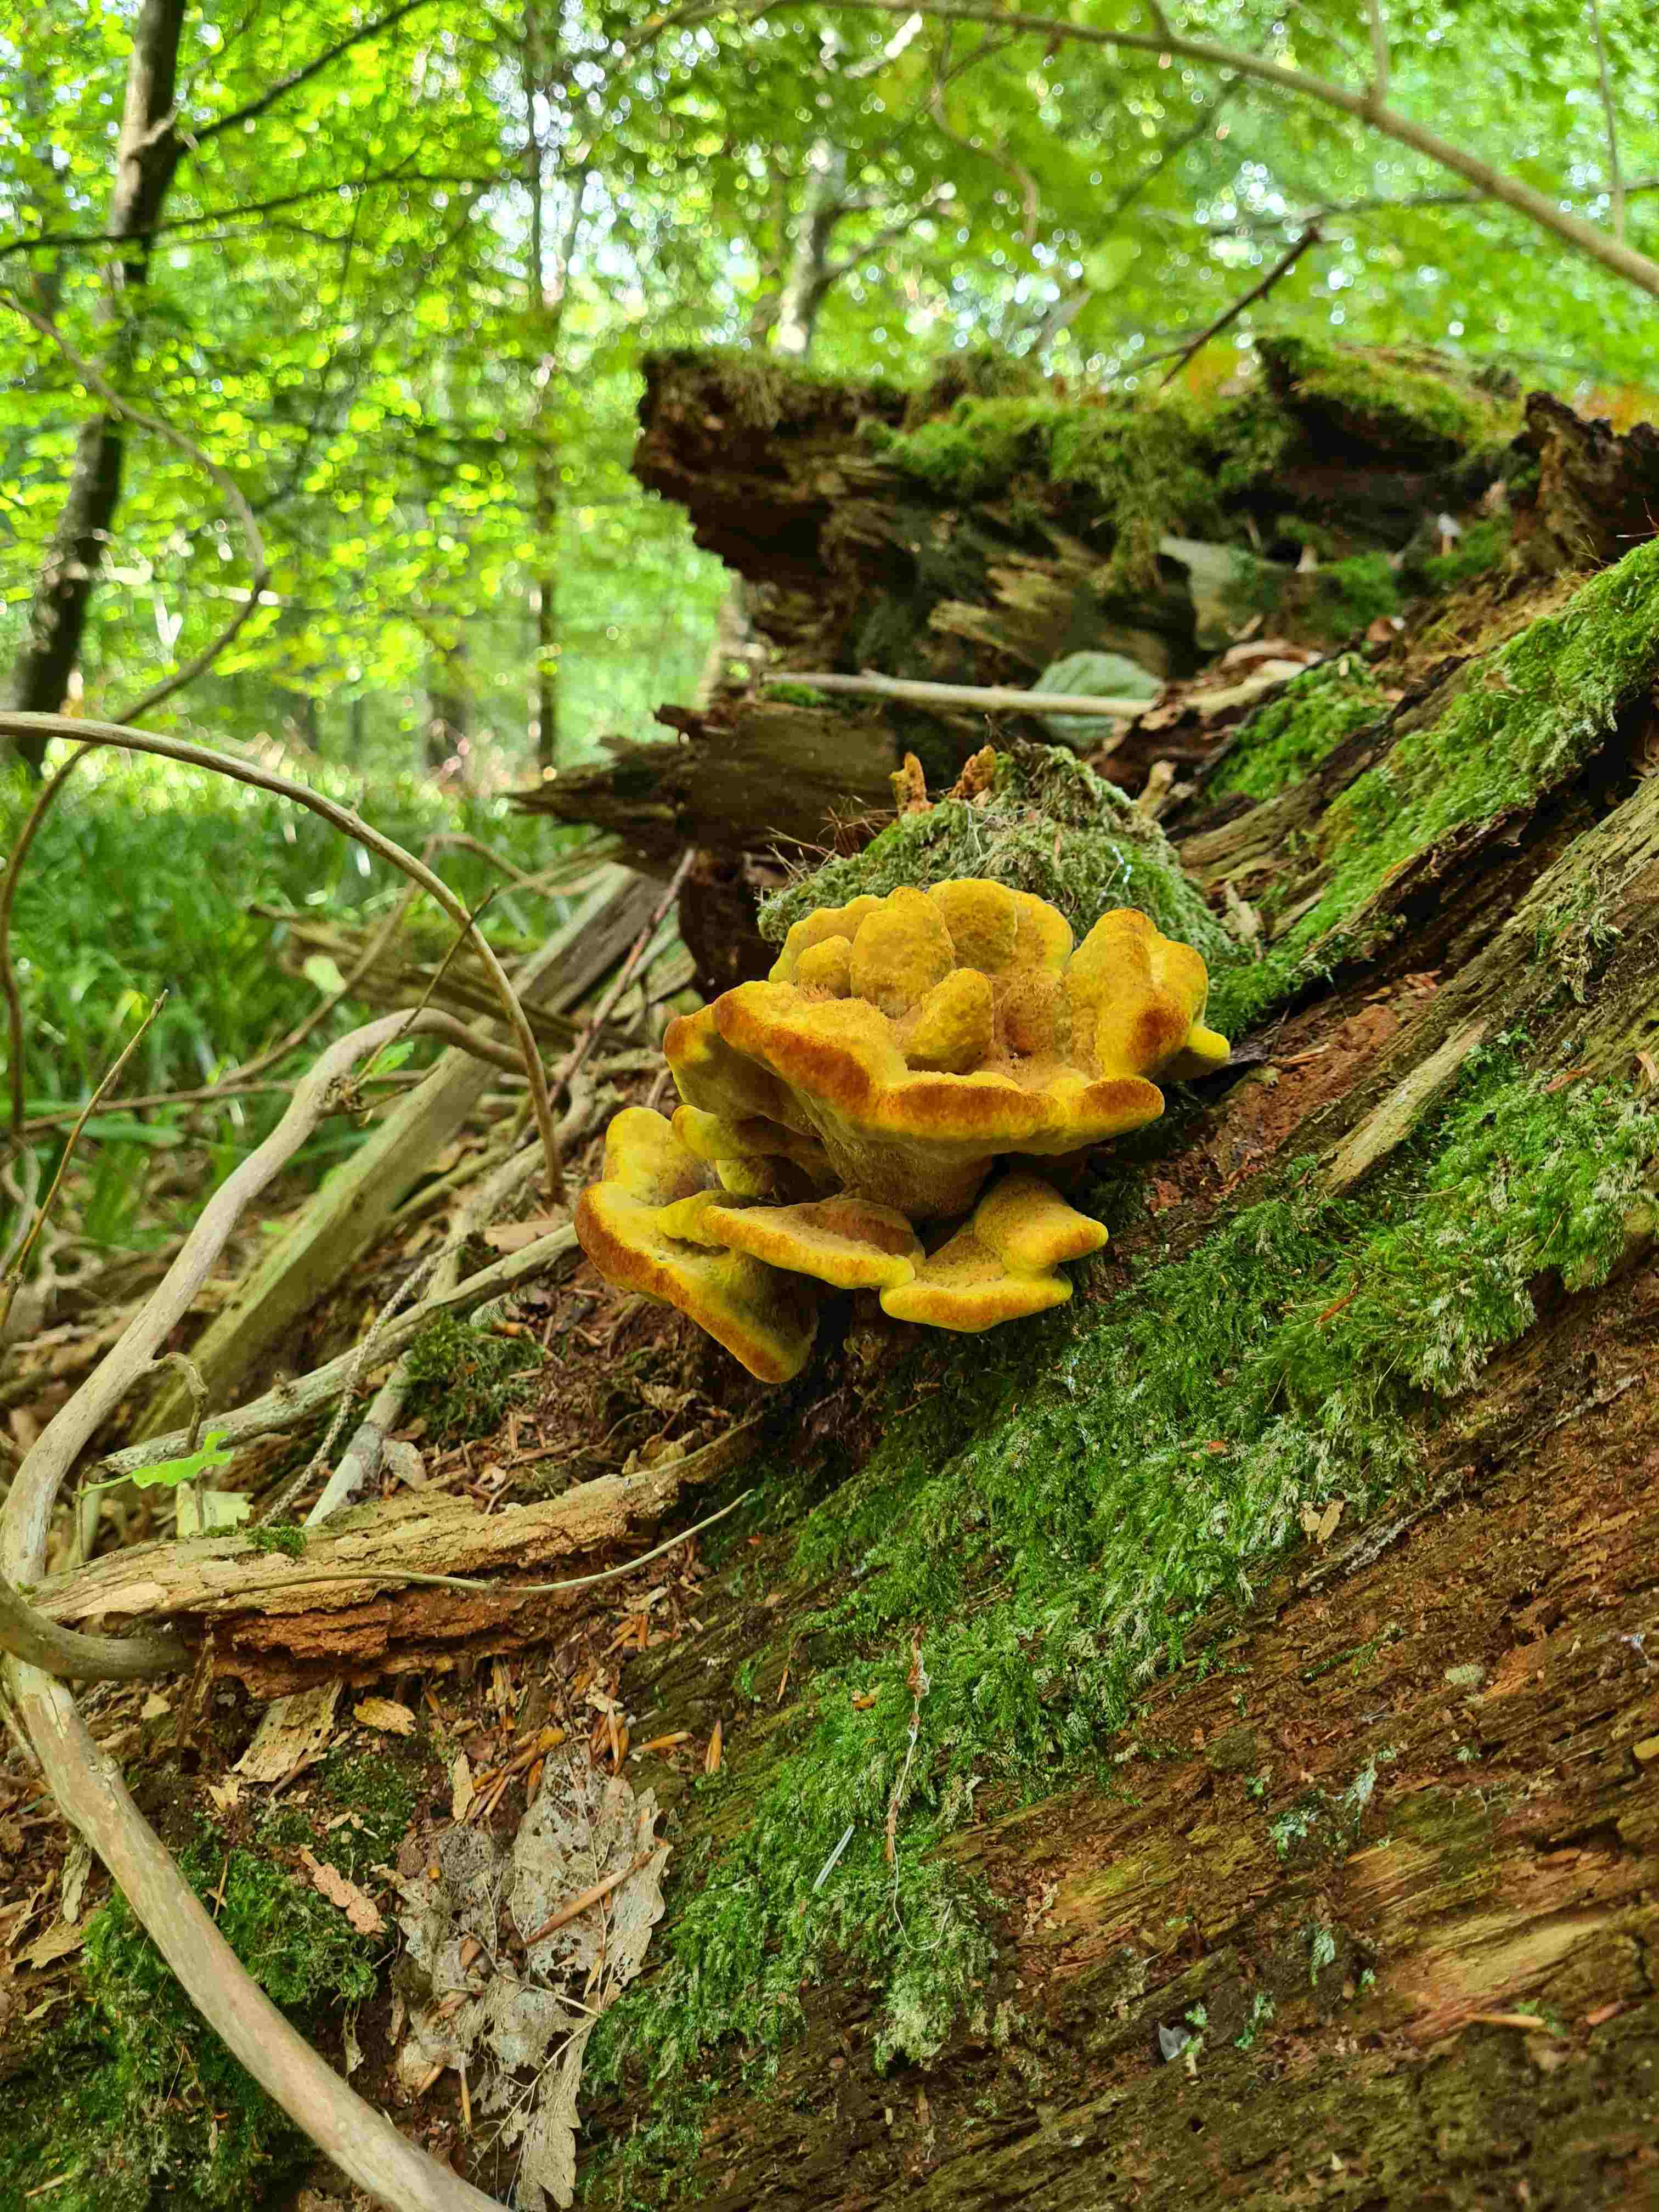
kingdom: Fungi
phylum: Basidiomycota
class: Agaricomycetes
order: Polyporales
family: Laetiporaceae
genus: Phaeolus
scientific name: Phaeolus schweinitzii
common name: brunporesvamp
